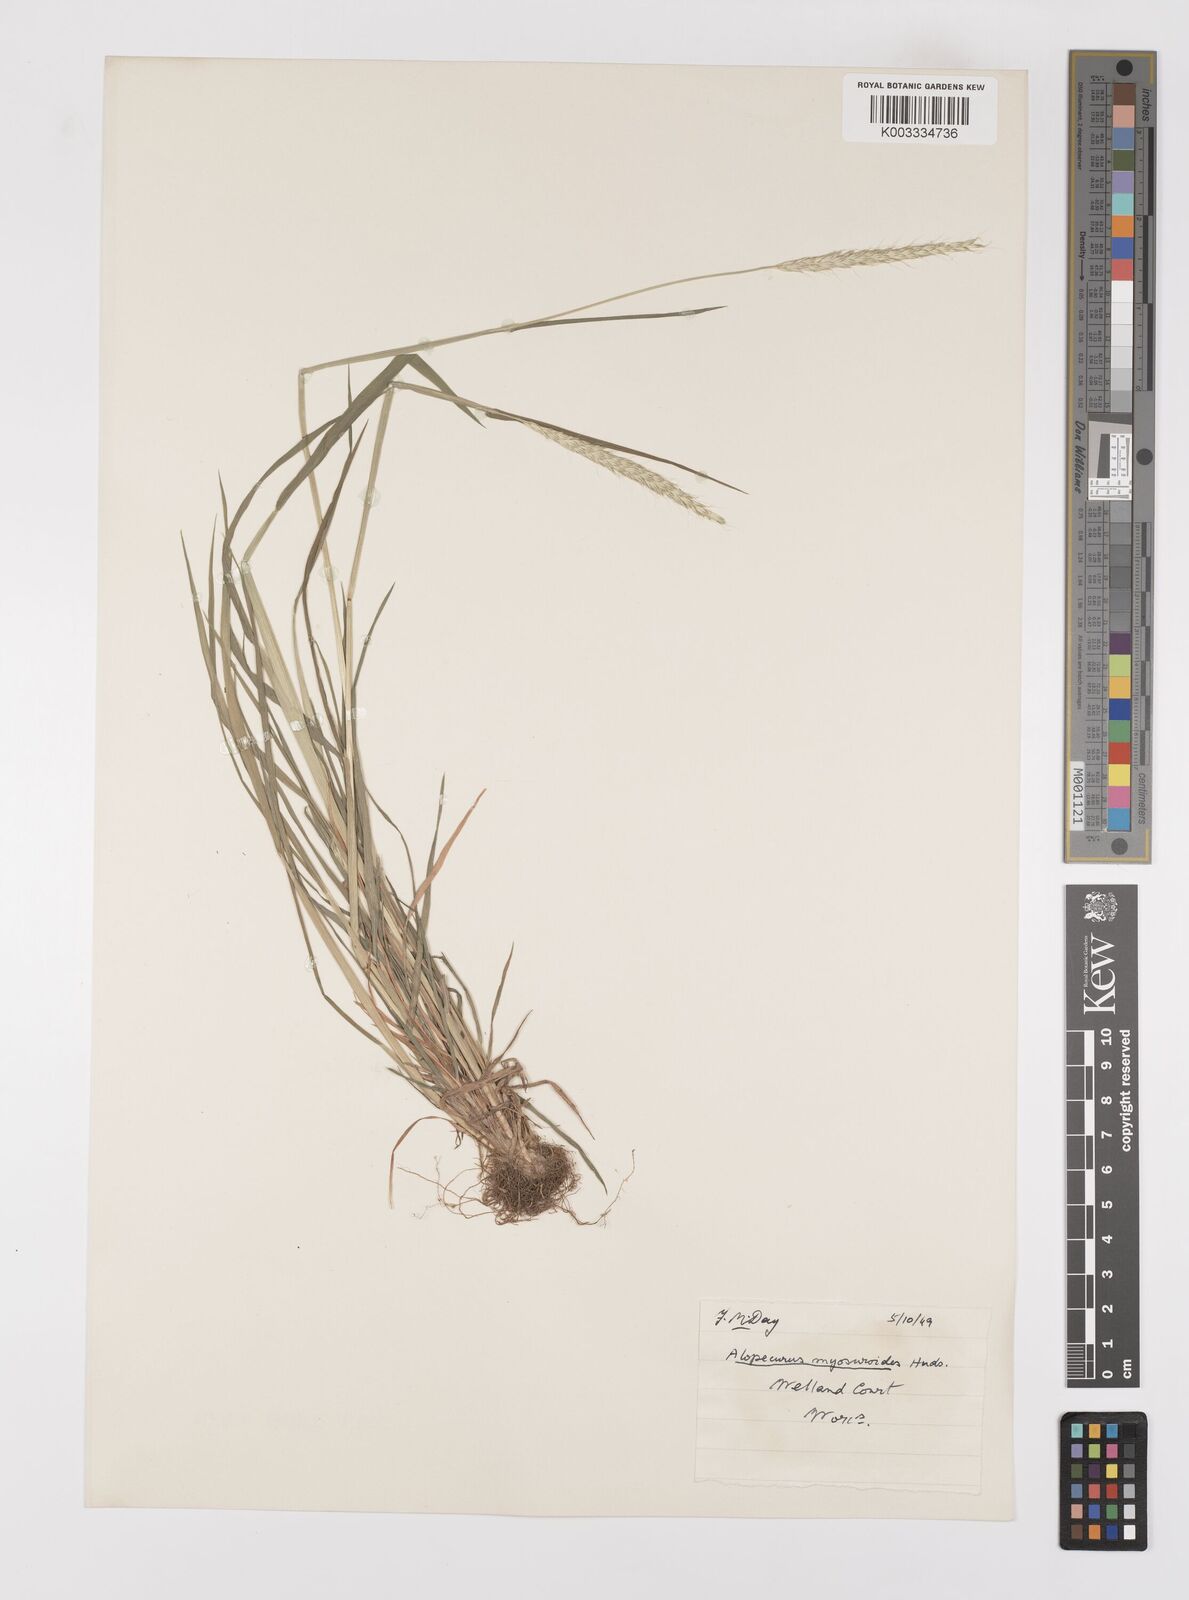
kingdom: Plantae
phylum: Tracheophyta
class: Liliopsida
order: Poales
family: Poaceae
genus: Alopecurus
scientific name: Alopecurus myosuroides
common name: Black-grass
